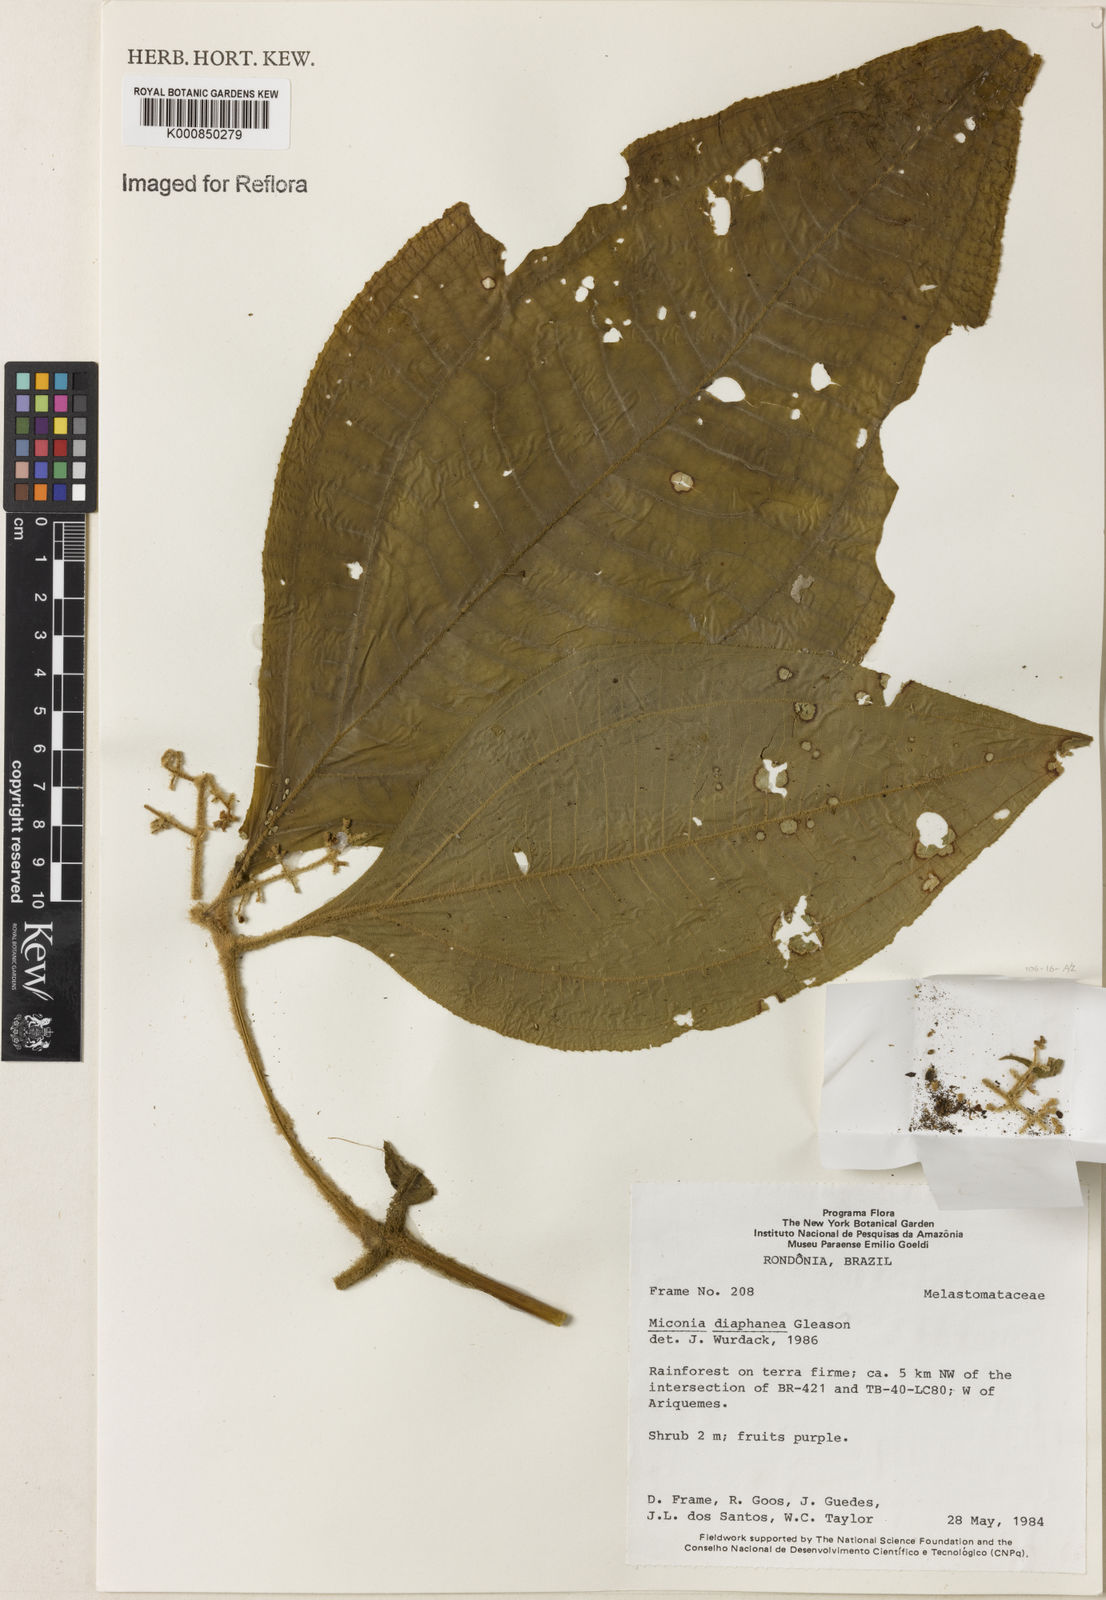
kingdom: Plantae
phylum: Tracheophyta
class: Magnoliopsida
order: Myrtales
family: Melastomataceae
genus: Miconia
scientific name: Miconia diaphanea
